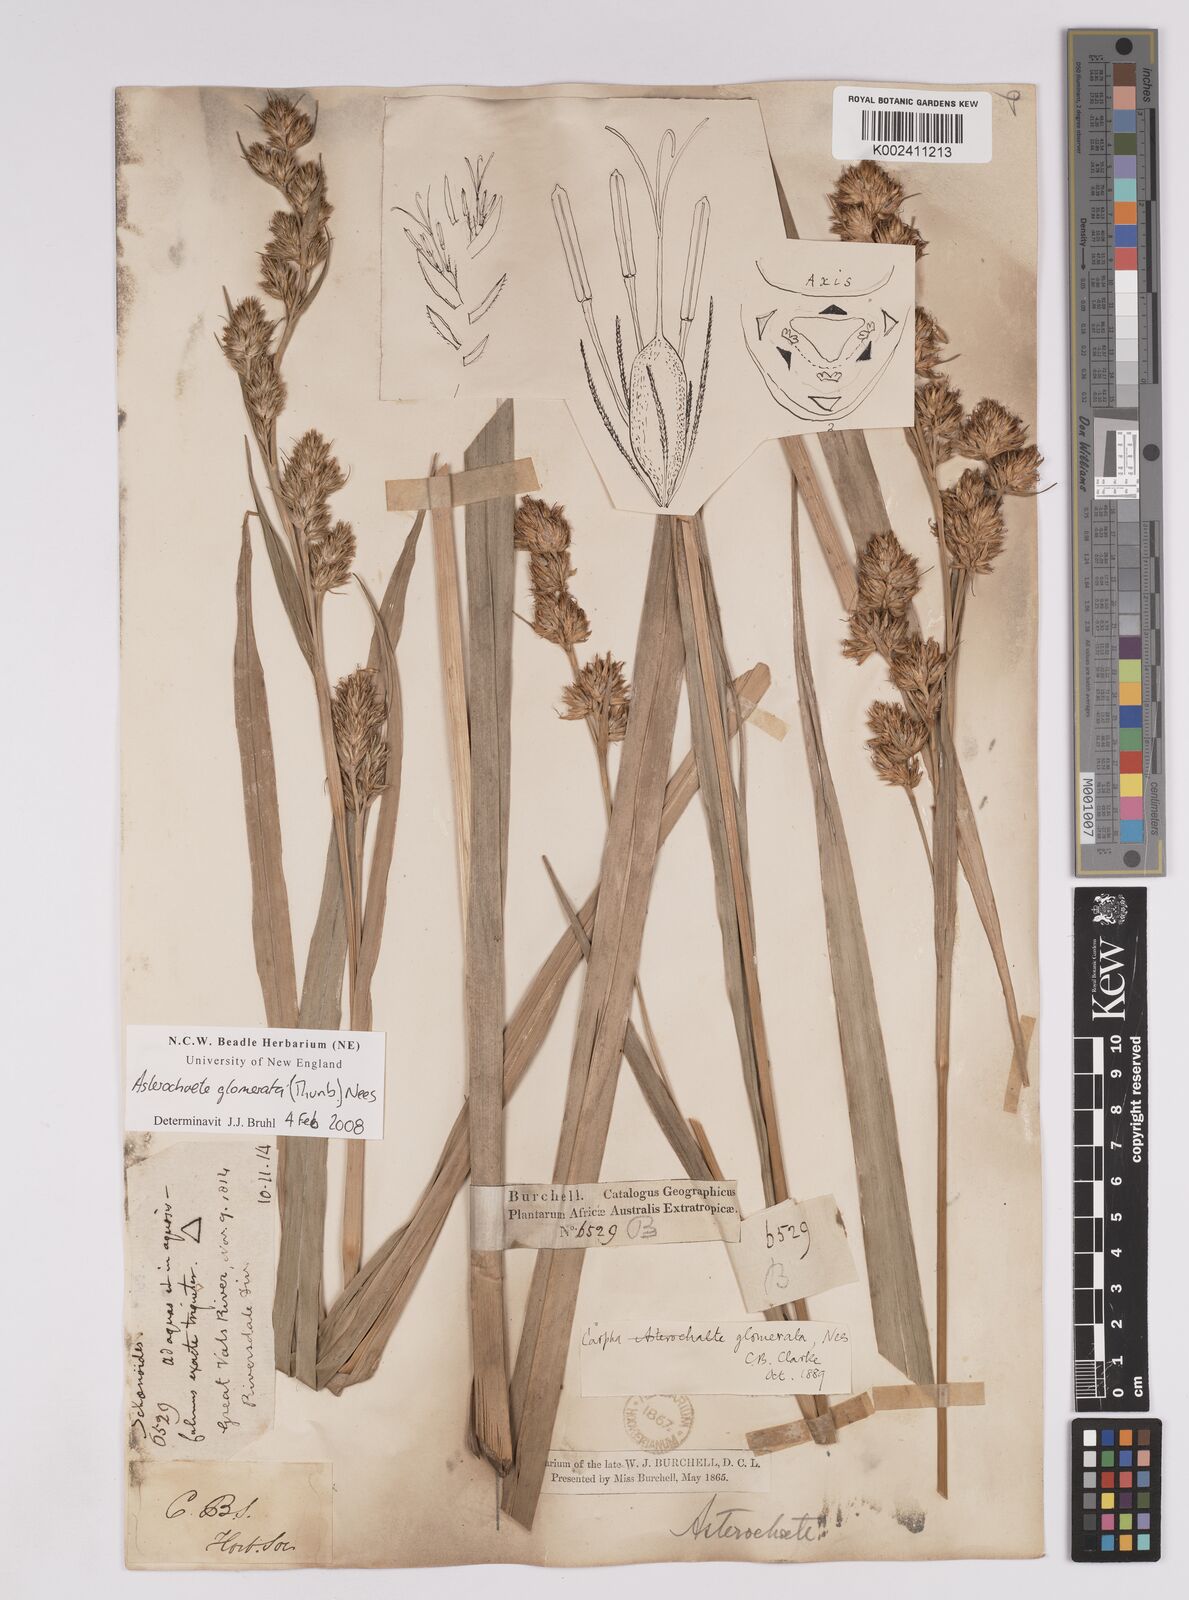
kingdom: Plantae
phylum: Tracheophyta
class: Liliopsida
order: Poales
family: Cyperaceae
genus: Carpha
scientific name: Carpha glomerata
